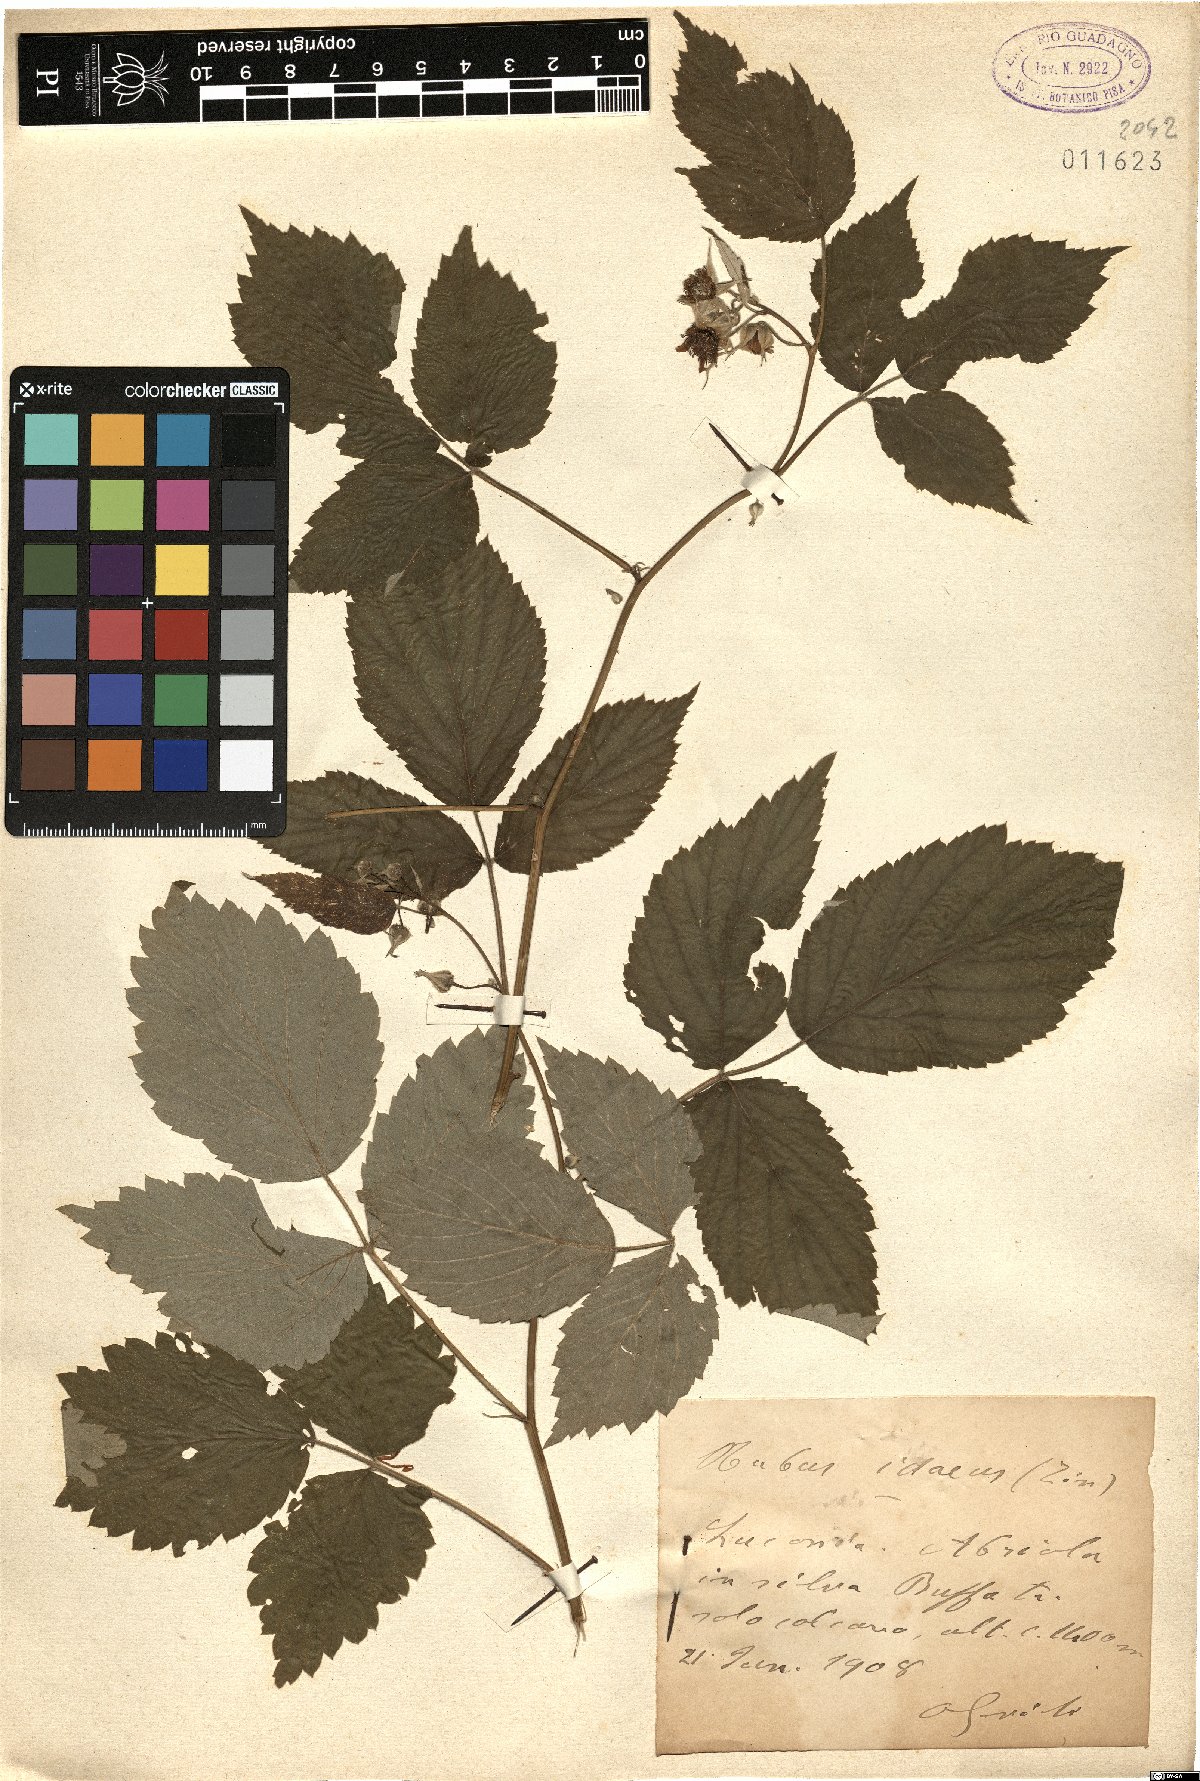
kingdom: Plantae
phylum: Tracheophyta
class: Magnoliopsida
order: Rosales
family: Rosaceae
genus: Rubus
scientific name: Rubus idaeus
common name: Raspberry
